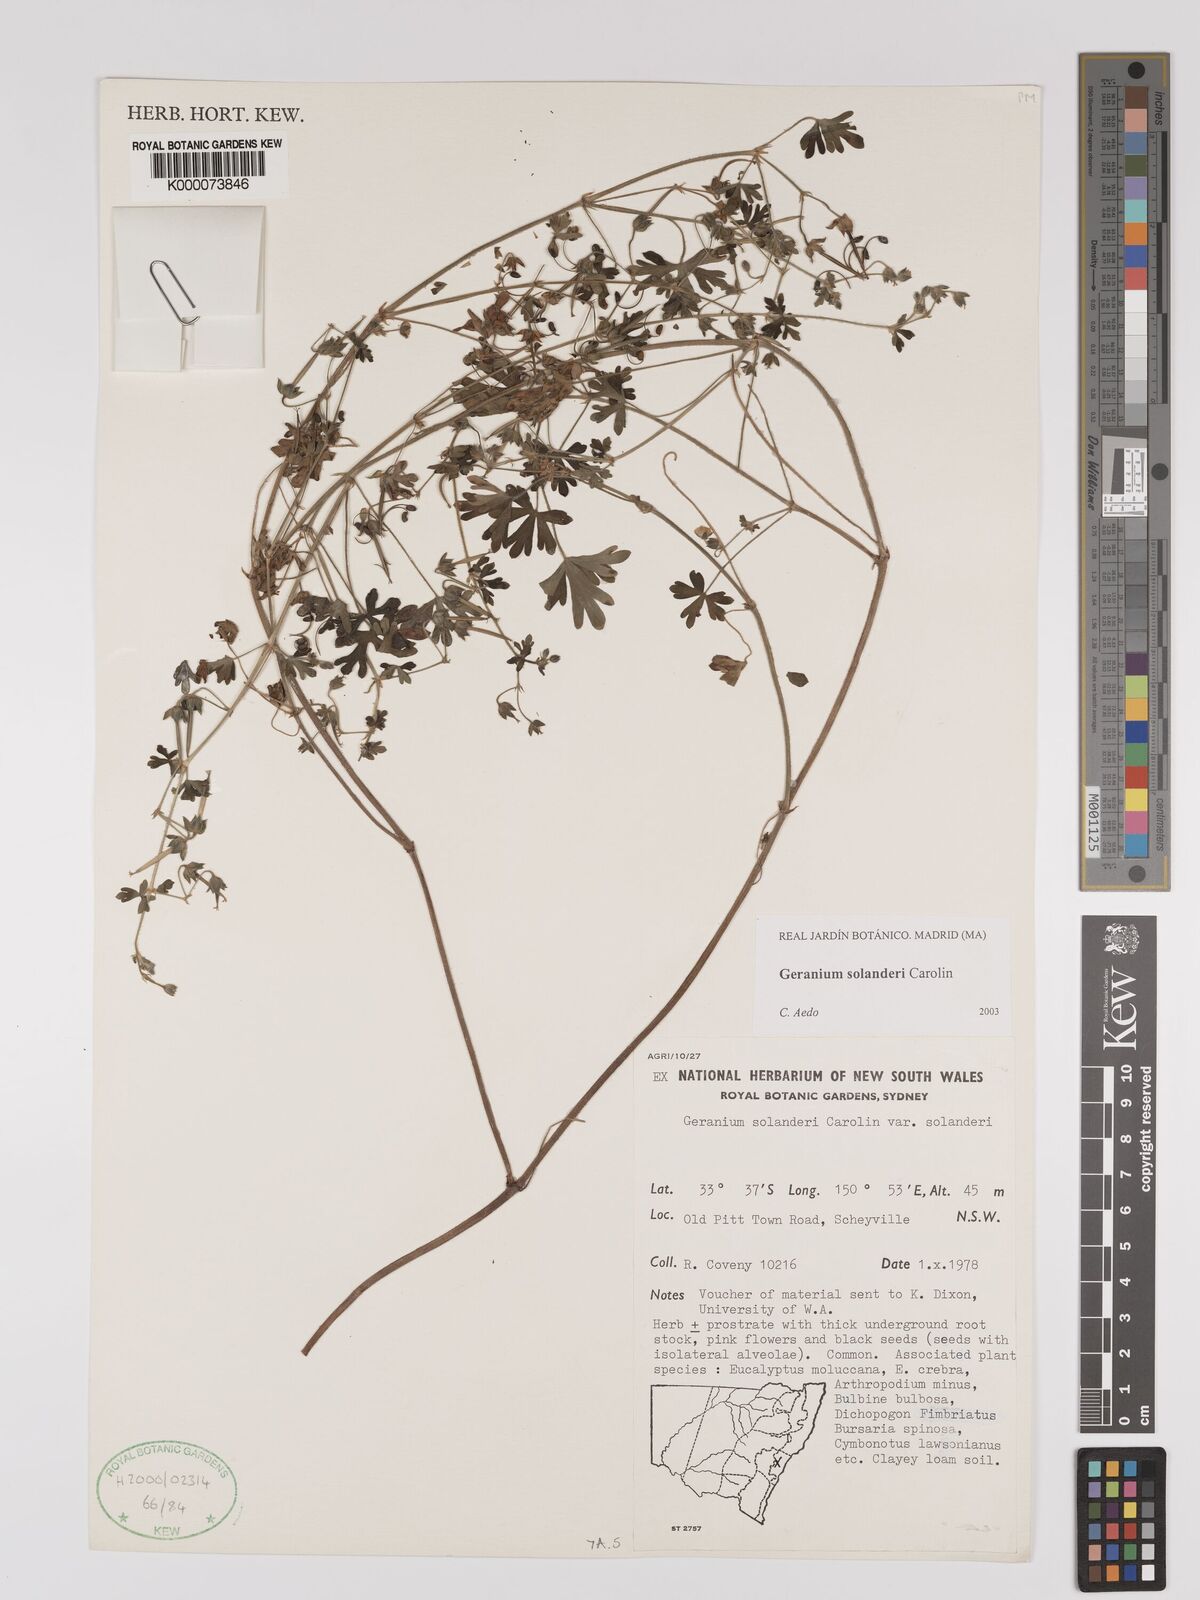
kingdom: Plantae
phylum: Tracheophyta
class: Magnoliopsida
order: Geraniales
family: Geraniaceae
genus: Geranium
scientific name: Geranium solanderi
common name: Solander's geranium
